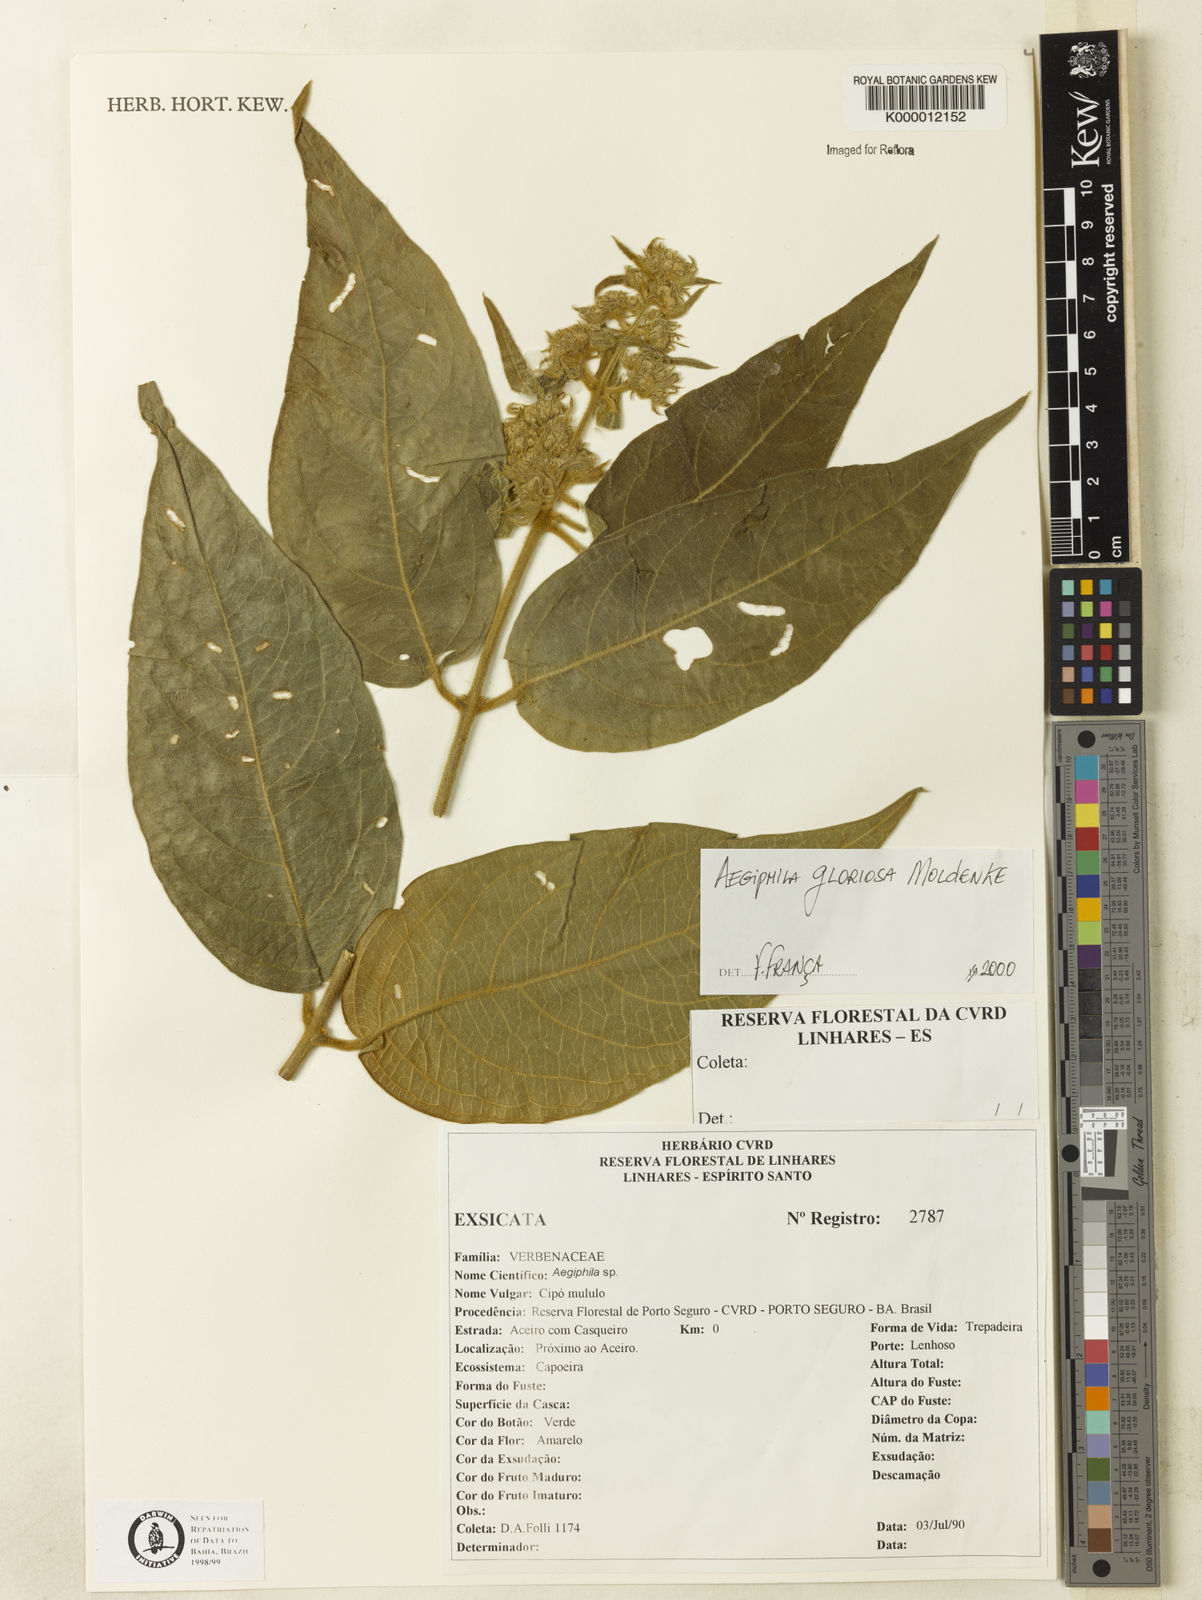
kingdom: Plantae
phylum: Tracheophyta
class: Magnoliopsida
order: Lamiales
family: Lamiaceae
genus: Aegiphila
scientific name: Aegiphila
